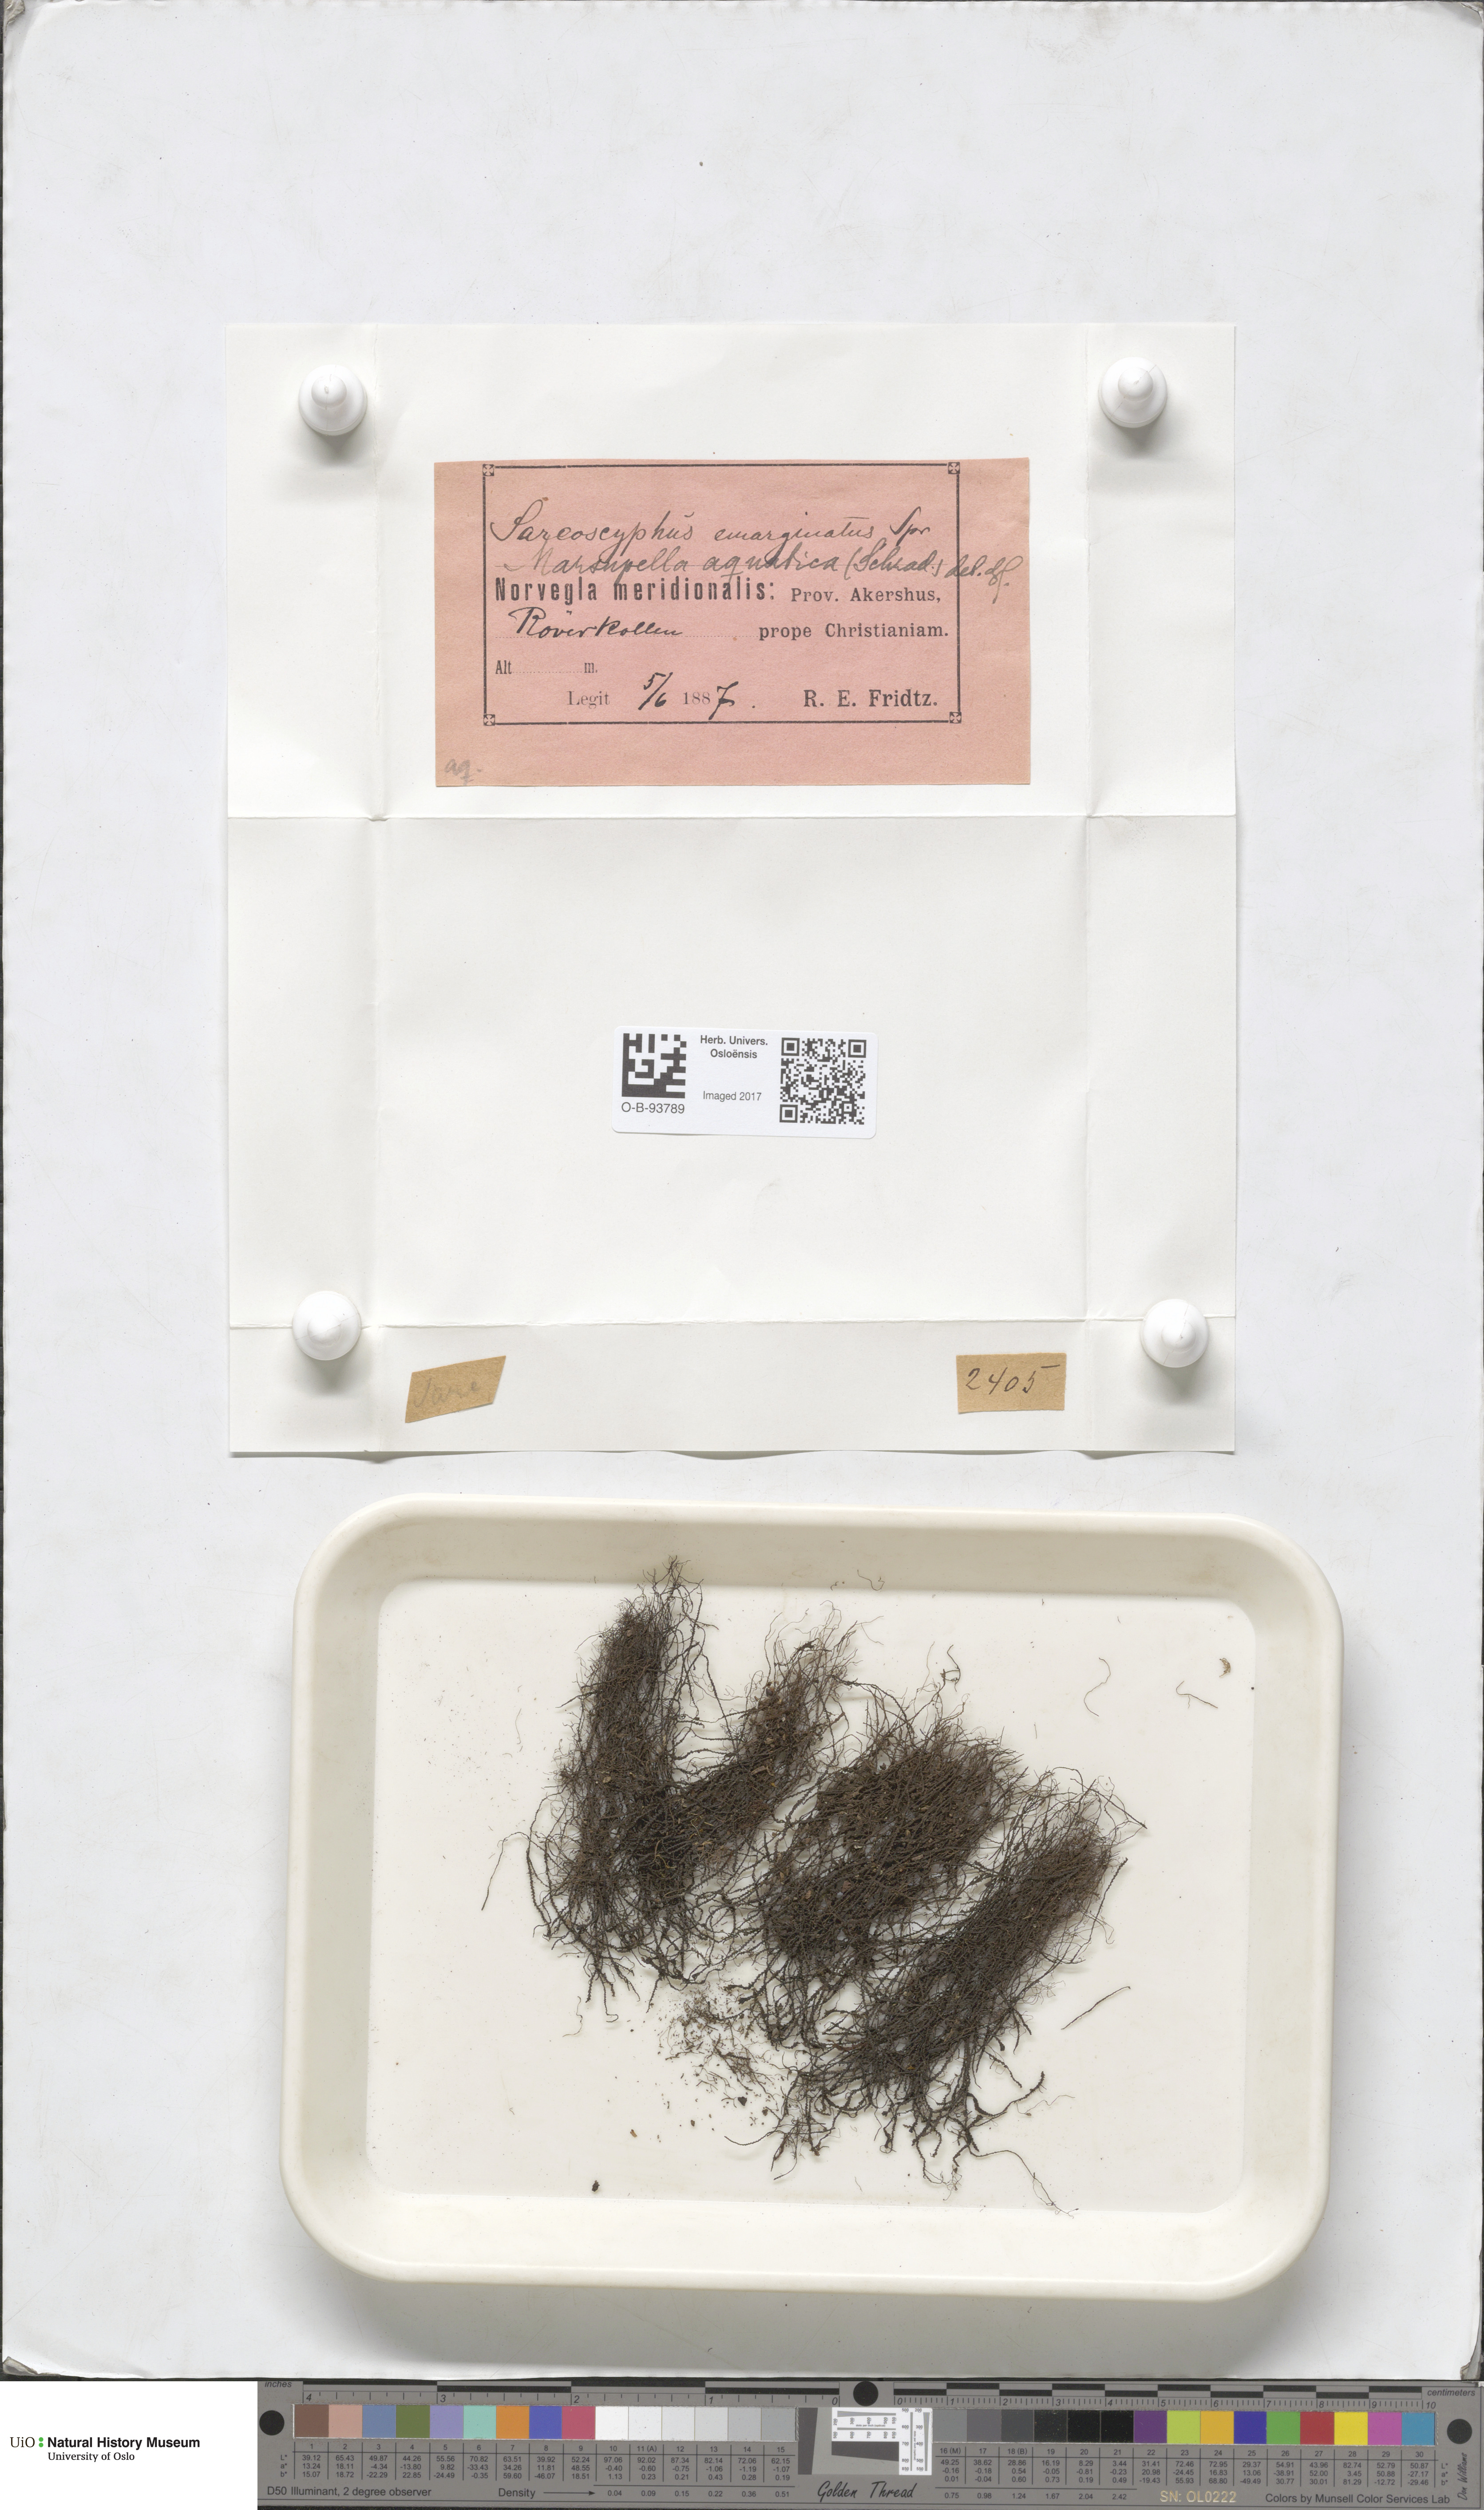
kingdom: Plantae
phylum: Marchantiophyta
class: Jungermanniopsida
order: Jungermanniales
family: Gymnomitriaceae
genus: Marsupella
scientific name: Marsupella emarginata
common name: Notched rustwort
